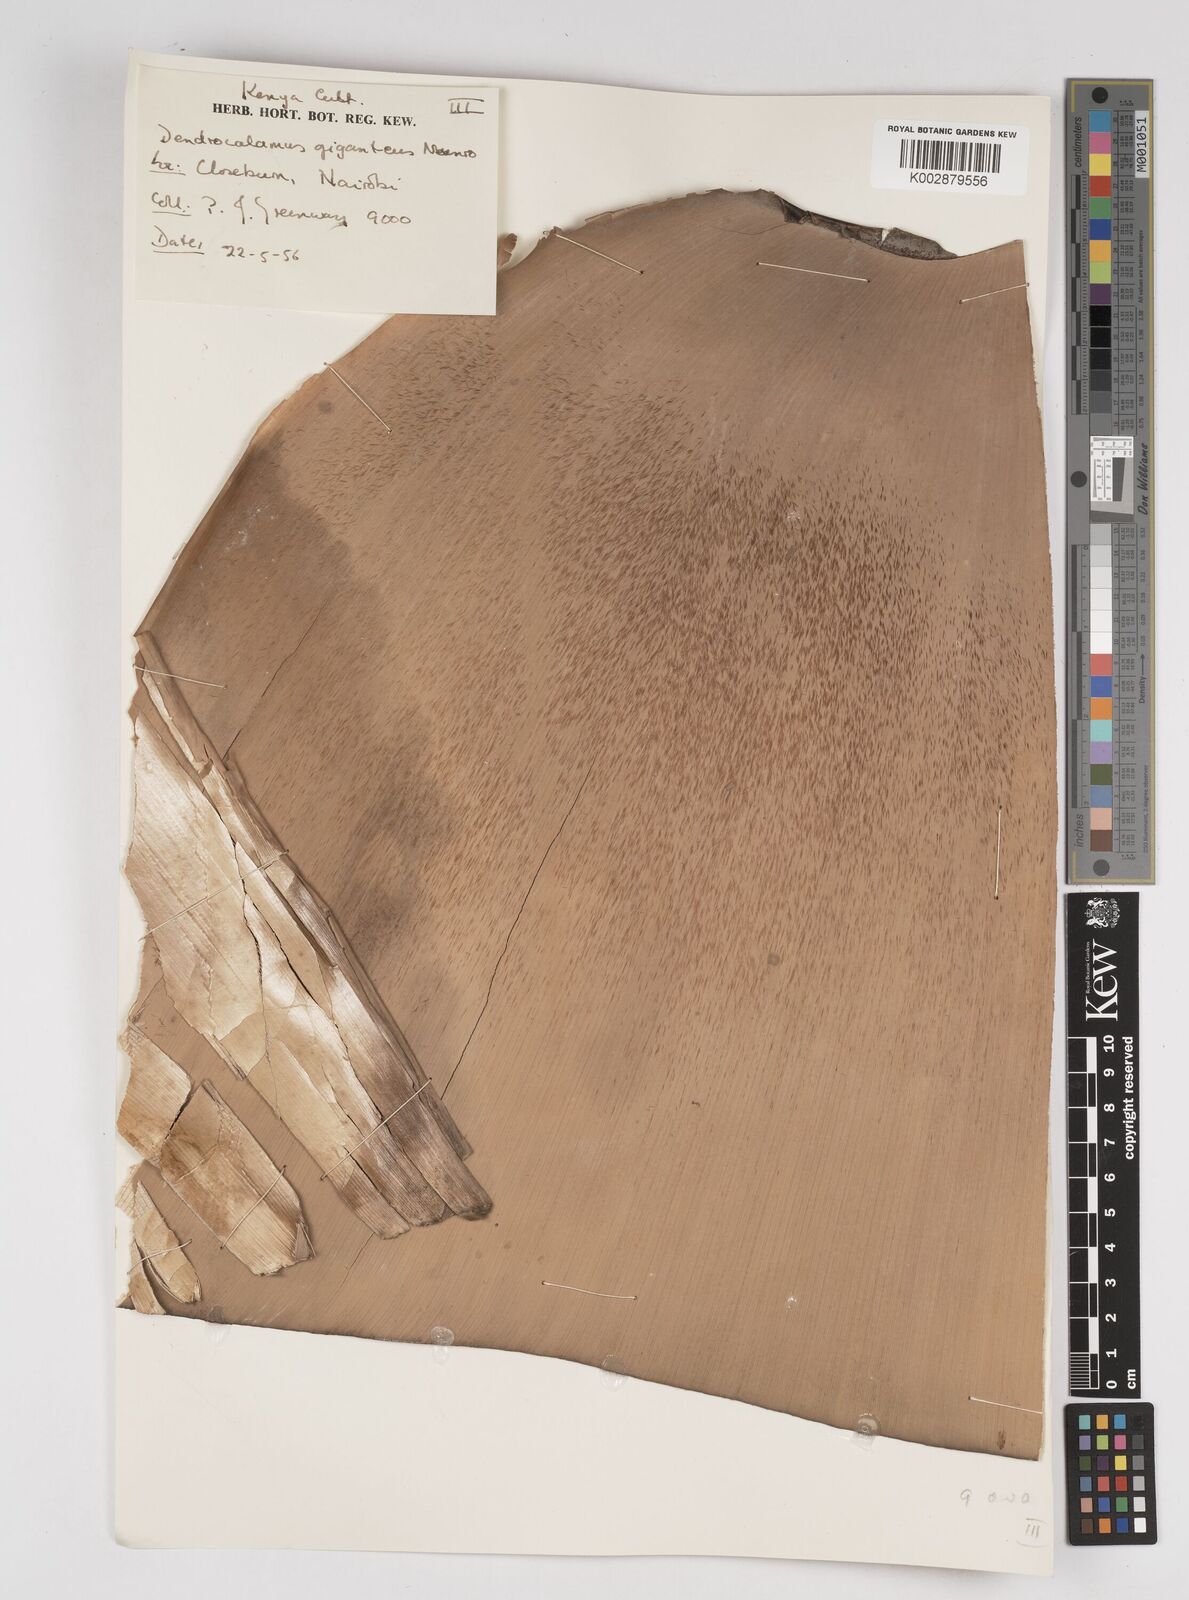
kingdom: Plantae
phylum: Tracheophyta
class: Liliopsida
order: Poales
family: Poaceae
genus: Dendrocalamus
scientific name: Dendrocalamus giganteus
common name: Giant bamboo
